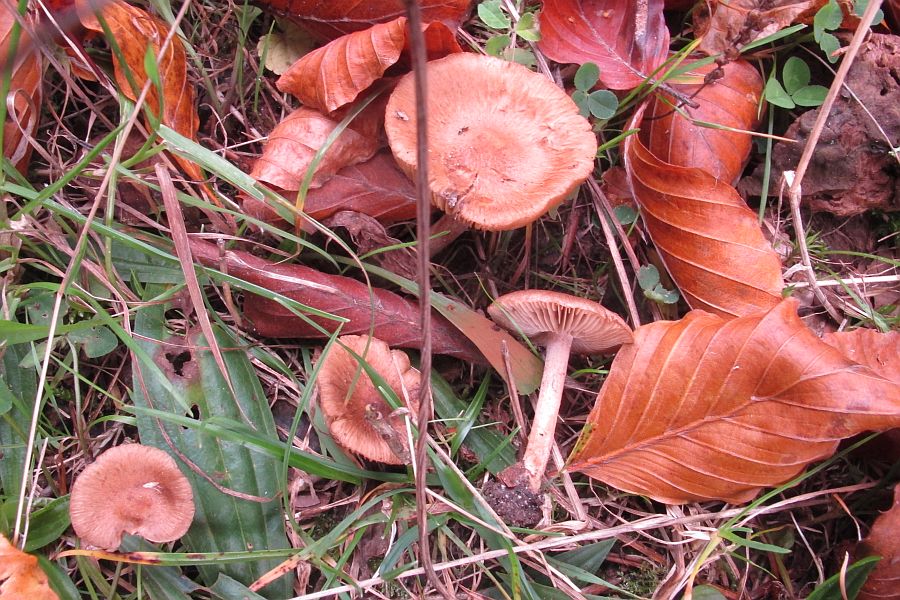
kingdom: Fungi
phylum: Basidiomycota
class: Agaricomycetes
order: Agaricales
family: Inocybaceae
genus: Inocybe
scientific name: Inocybe
